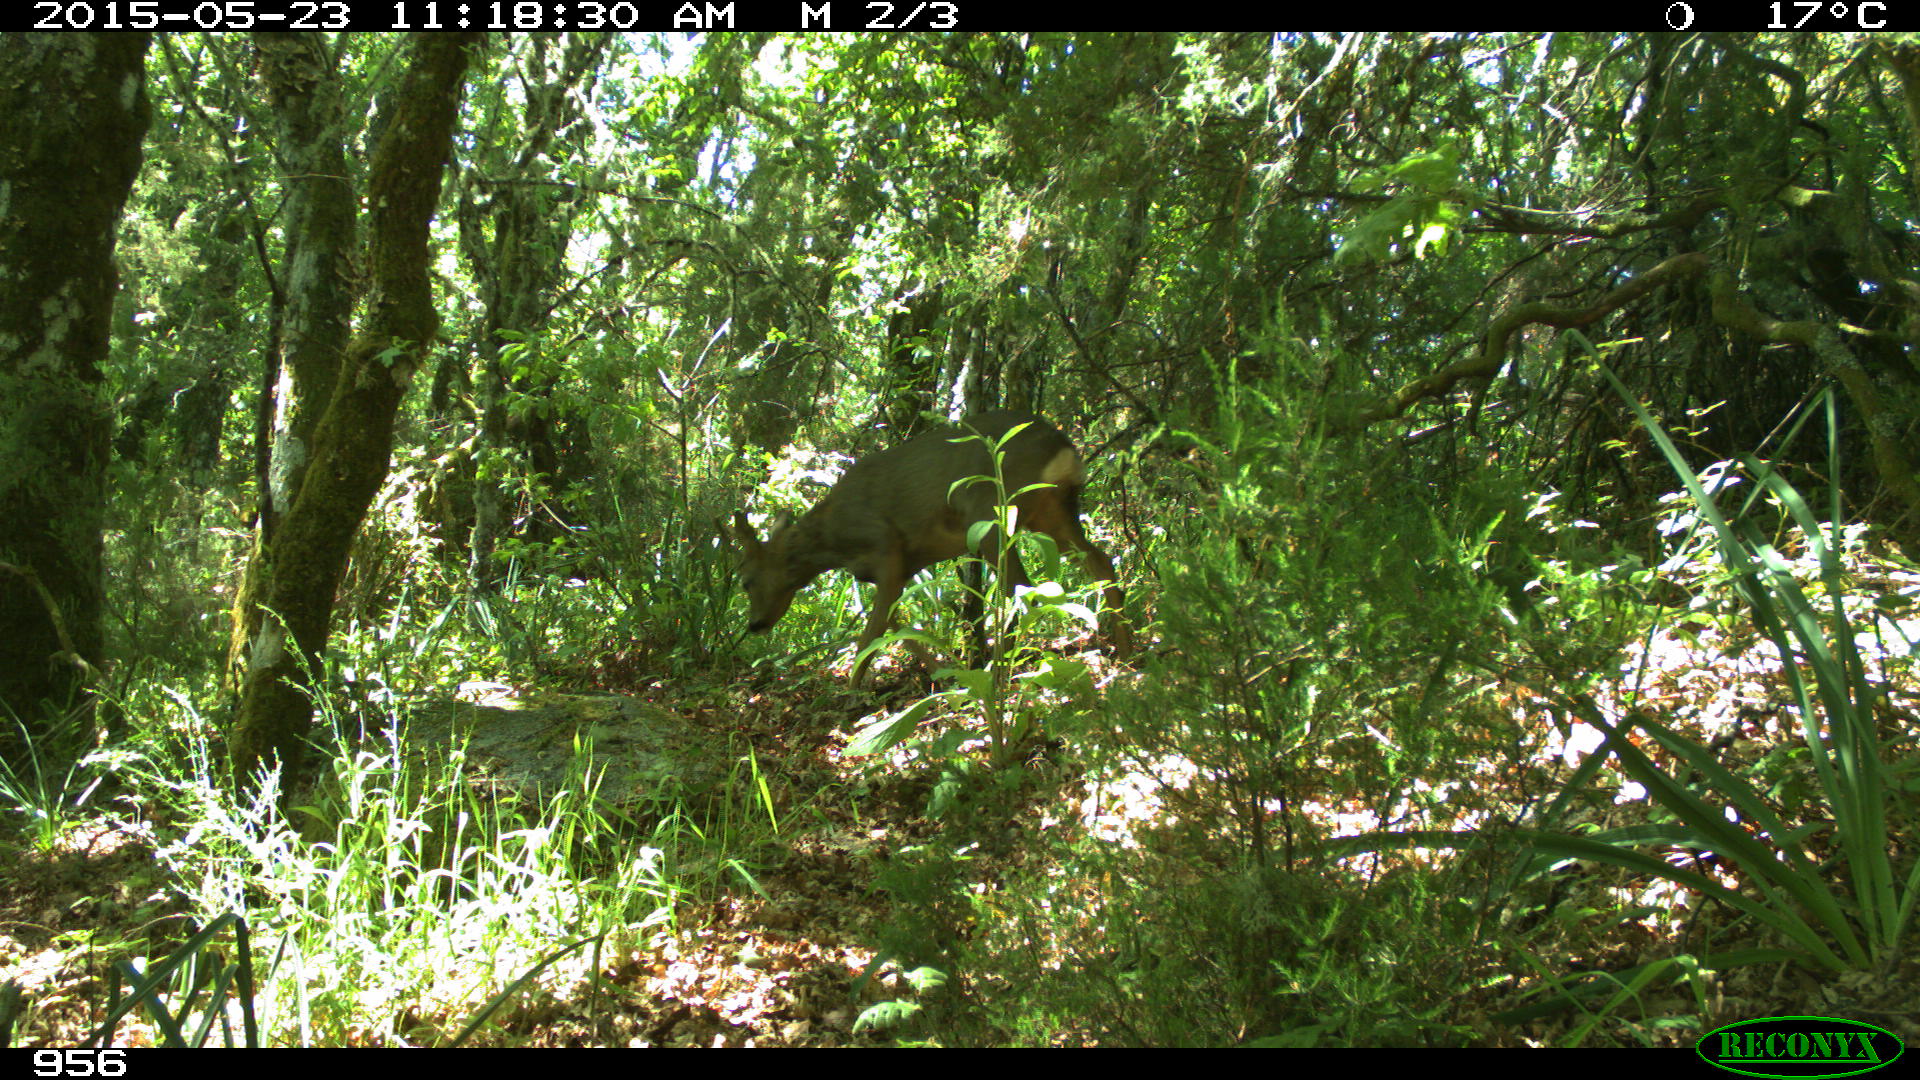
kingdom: Animalia
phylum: Chordata
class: Mammalia
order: Artiodactyla
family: Cervidae
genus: Capreolus
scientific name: Capreolus capreolus
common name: Western roe deer
